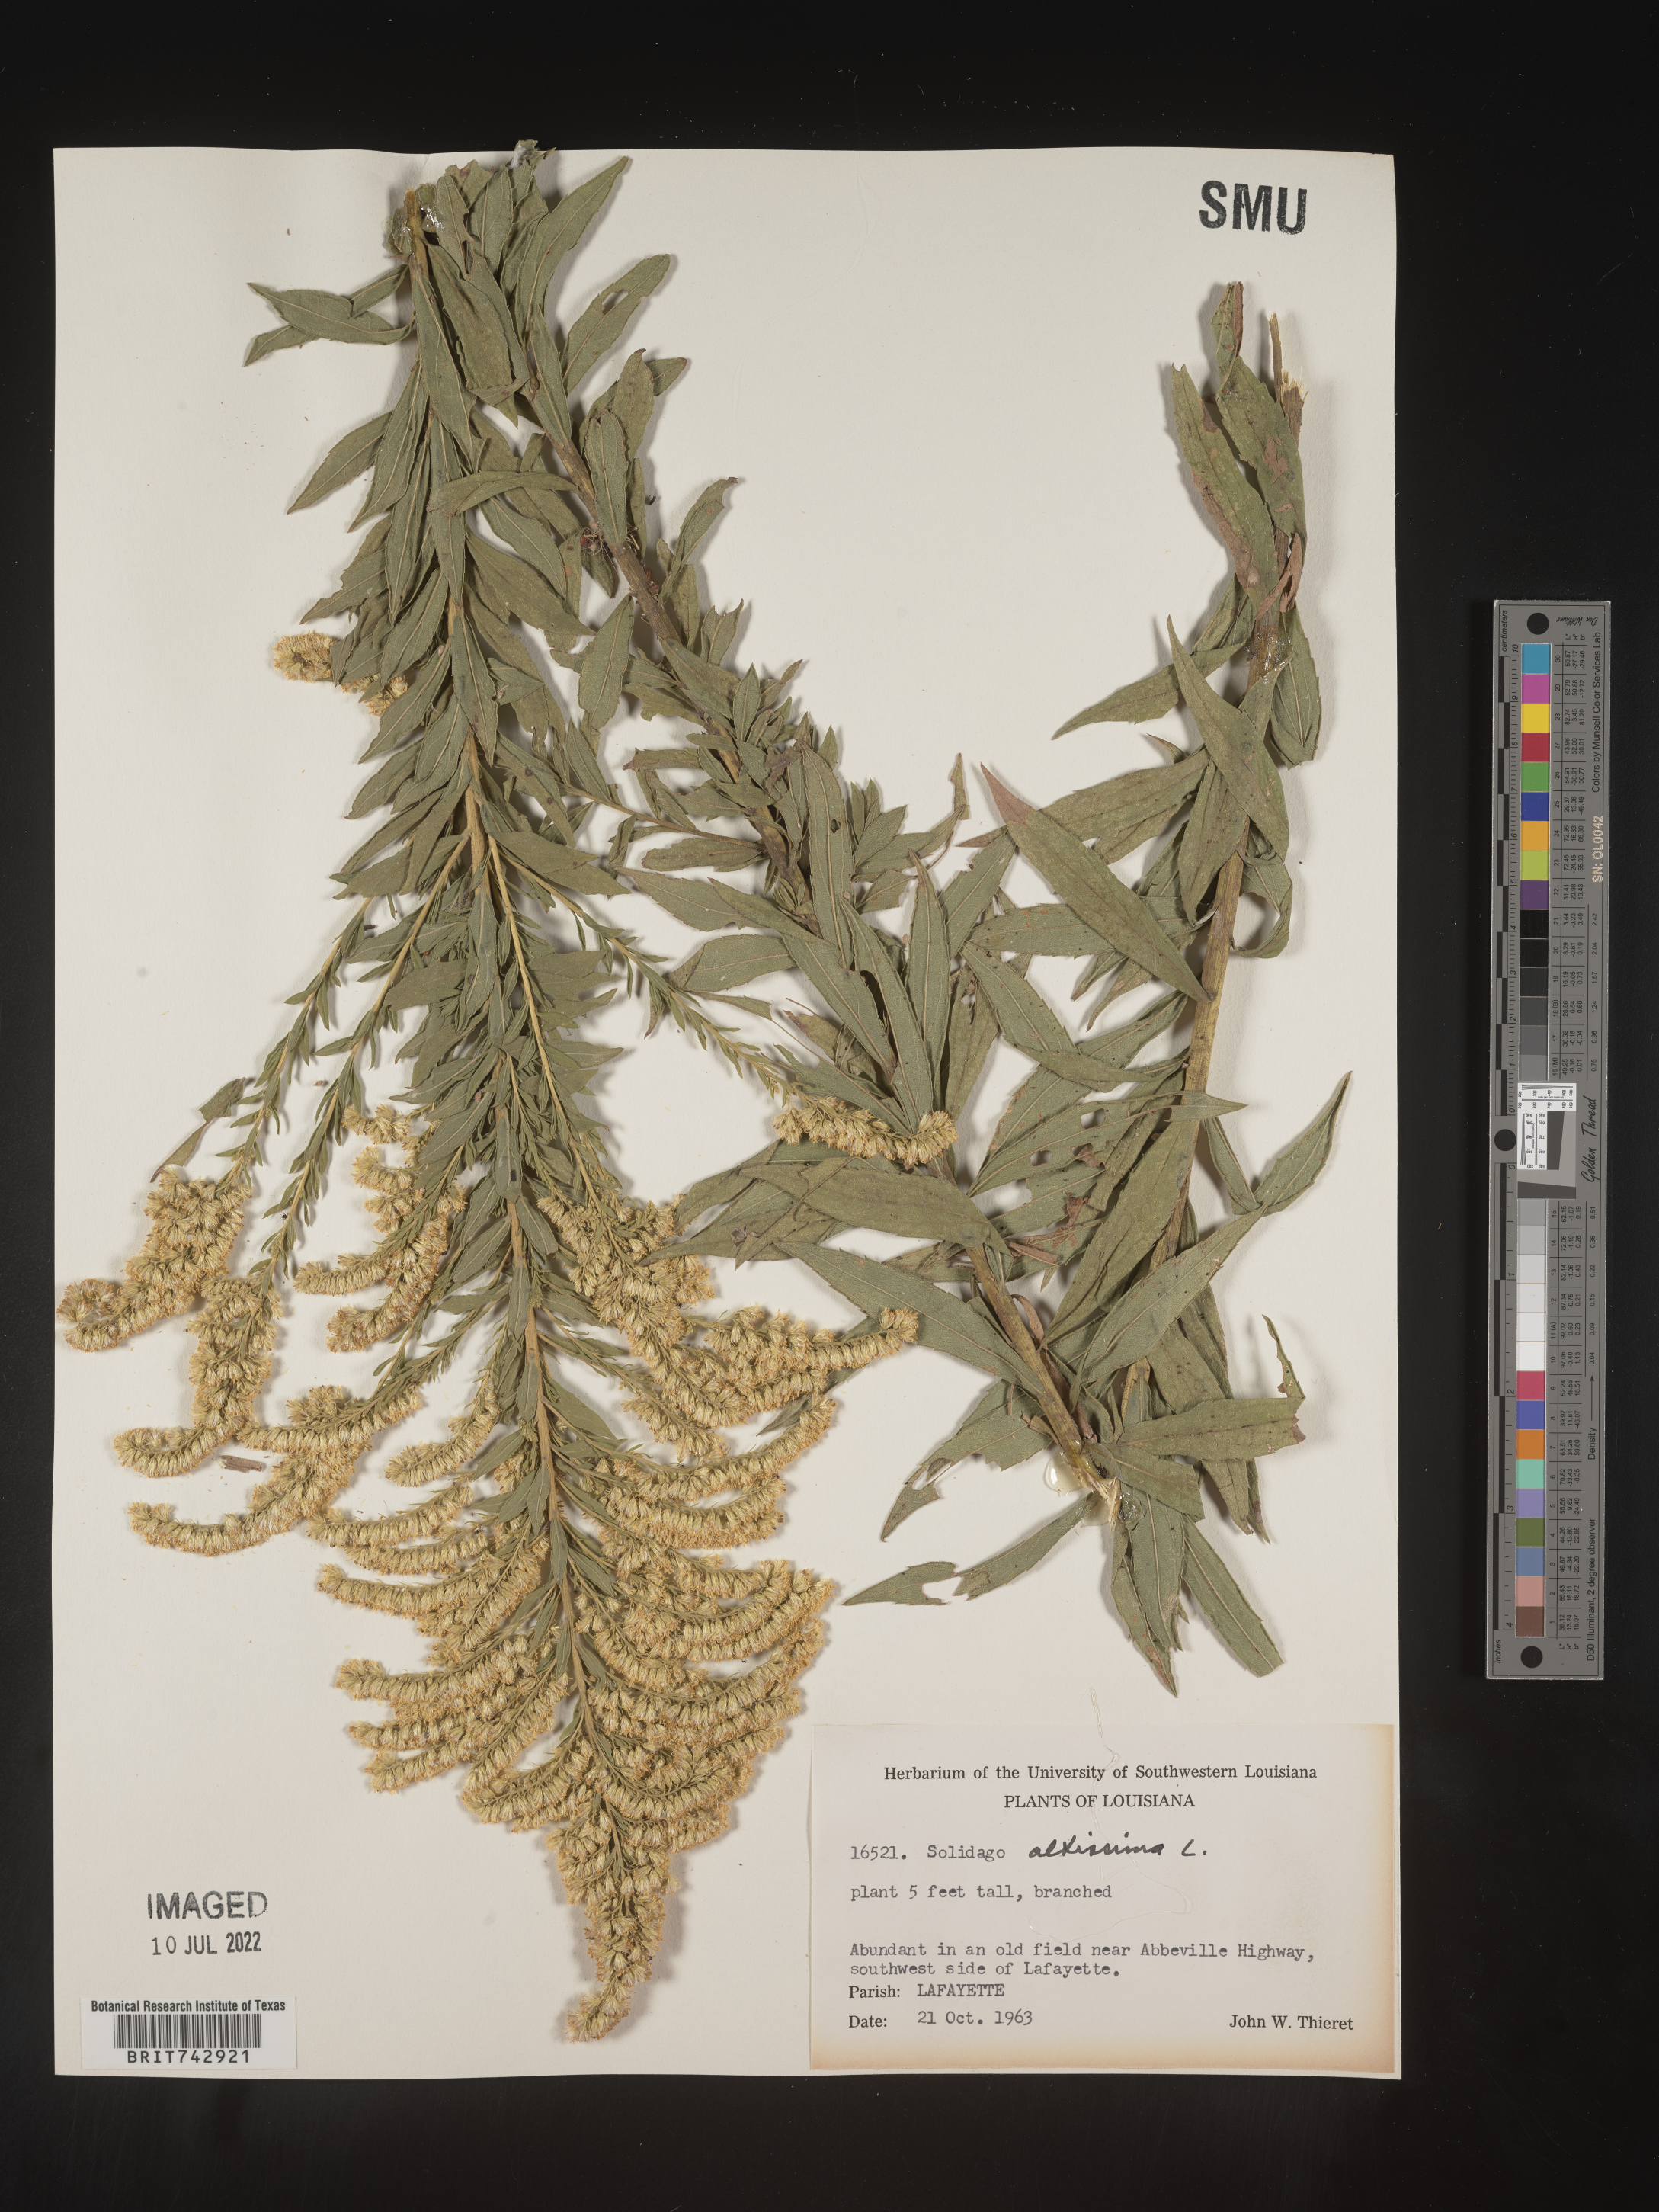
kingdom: Plantae
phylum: Tracheophyta
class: Magnoliopsida
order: Asterales
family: Asteraceae
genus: Solidago
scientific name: Solidago altissima
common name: Late goldenrod
